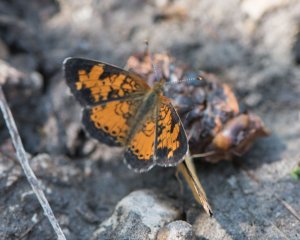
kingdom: Animalia
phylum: Arthropoda
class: Insecta
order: Lepidoptera
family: Nymphalidae
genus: Phyciodes
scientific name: Phyciodes tharos
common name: Northern Crescent
